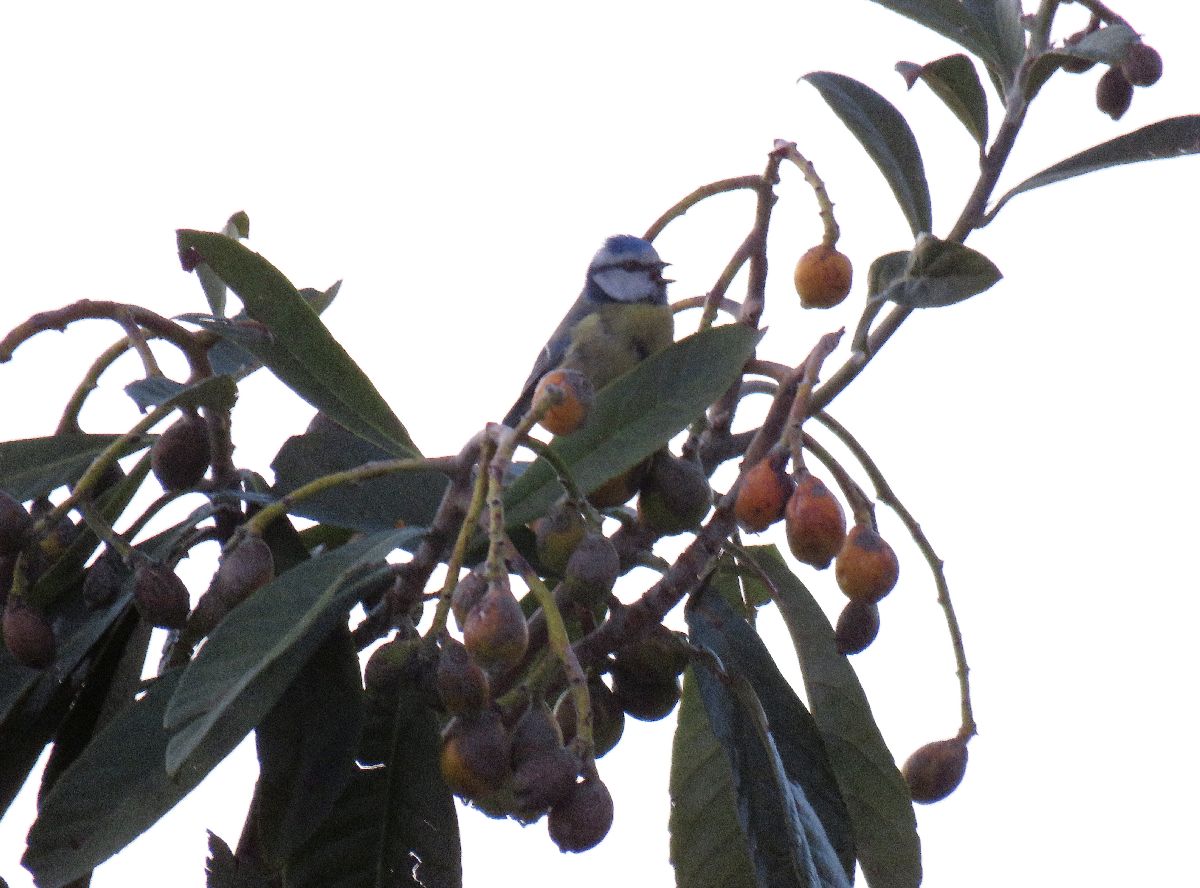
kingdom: Animalia
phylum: Chordata
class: Aves
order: Passeriformes
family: Paridae
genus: Cyanistes
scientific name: Cyanistes caeruleus
